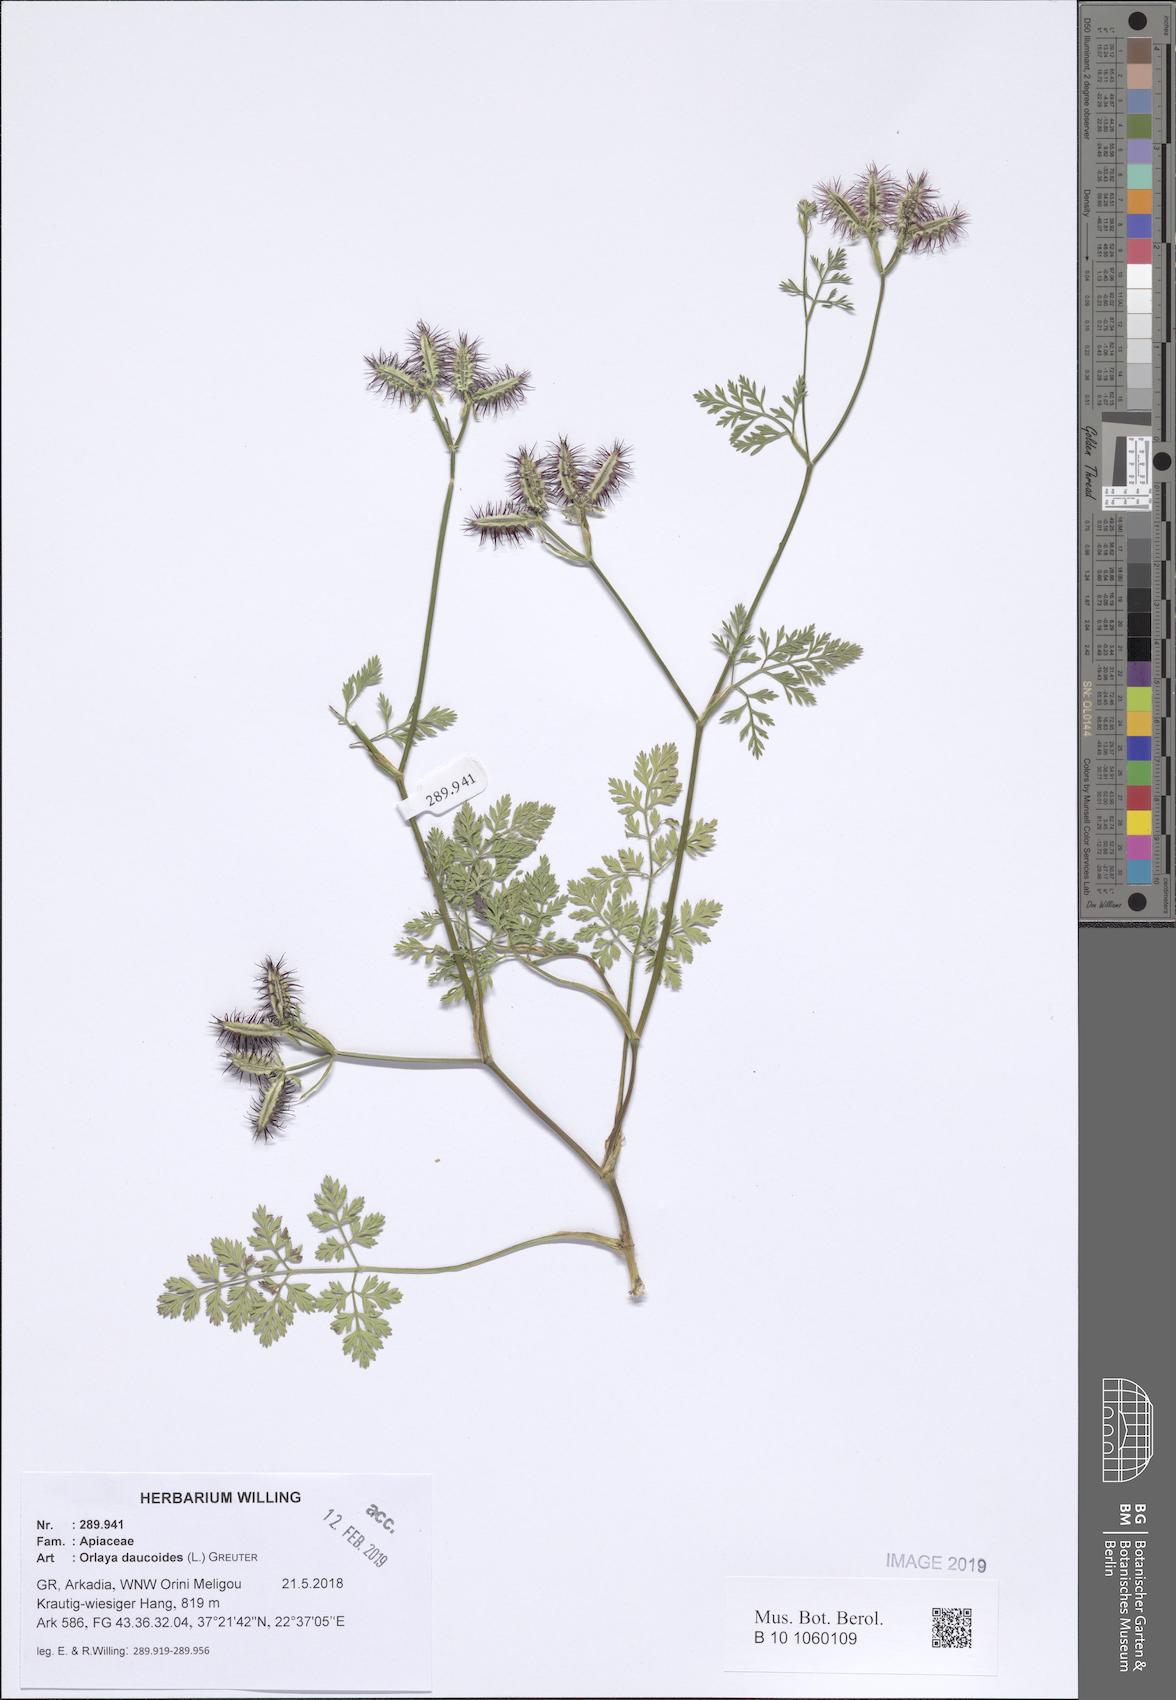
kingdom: Plantae
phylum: Tracheophyta
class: Magnoliopsida
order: Apiales
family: Apiaceae
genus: Orlaya
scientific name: Orlaya daucoides
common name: Flat-fruit orlaya
